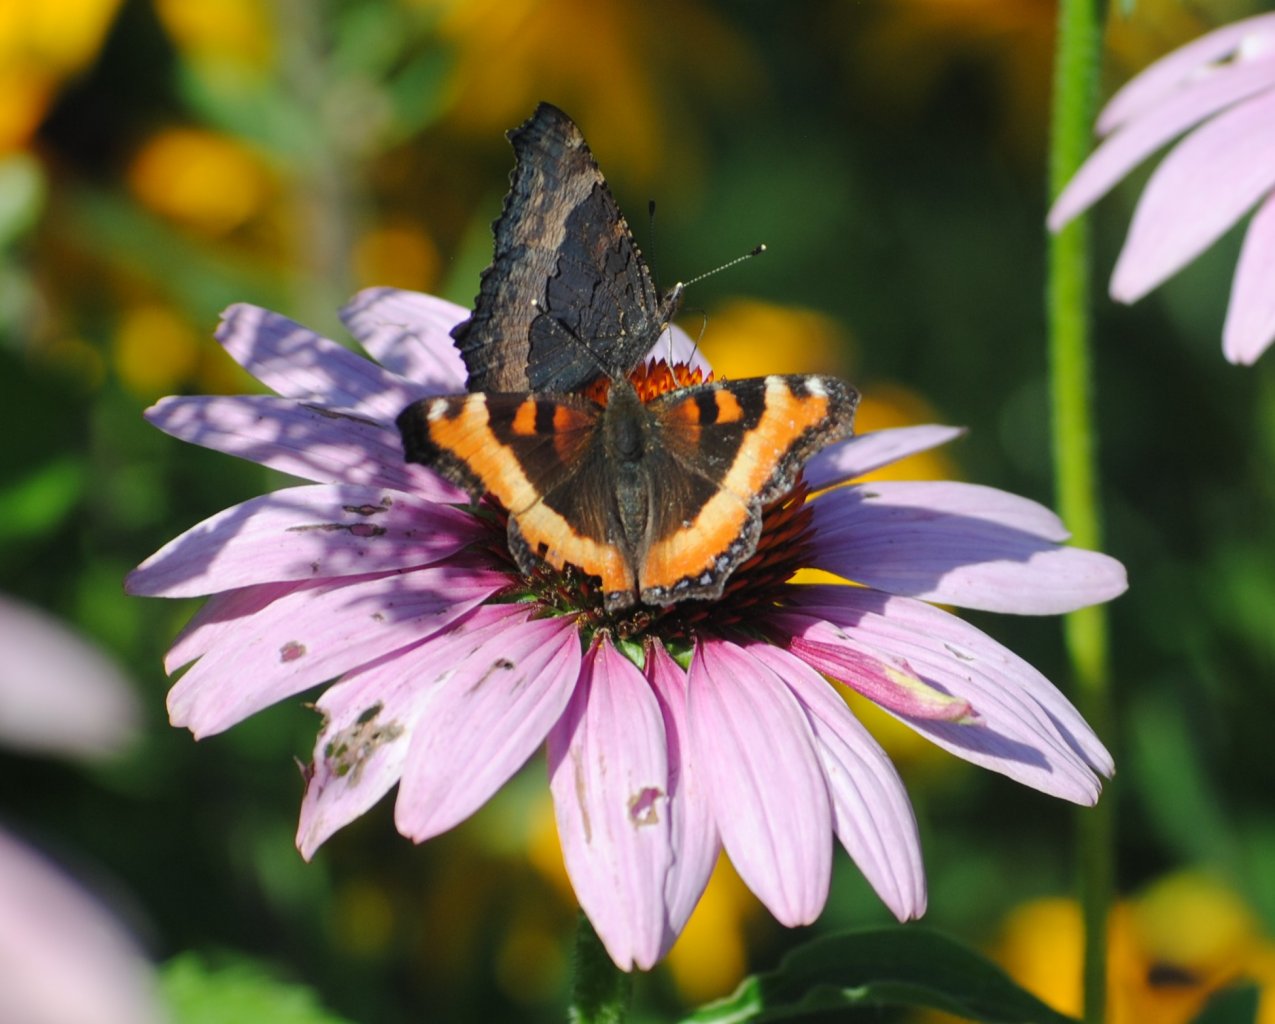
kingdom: Animalia
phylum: Arthropoda
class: Insecta
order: Lepidoptera
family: Nymphalidae
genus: Aglais
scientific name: Aglais milberti
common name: Milbert's Tortoiseshell
